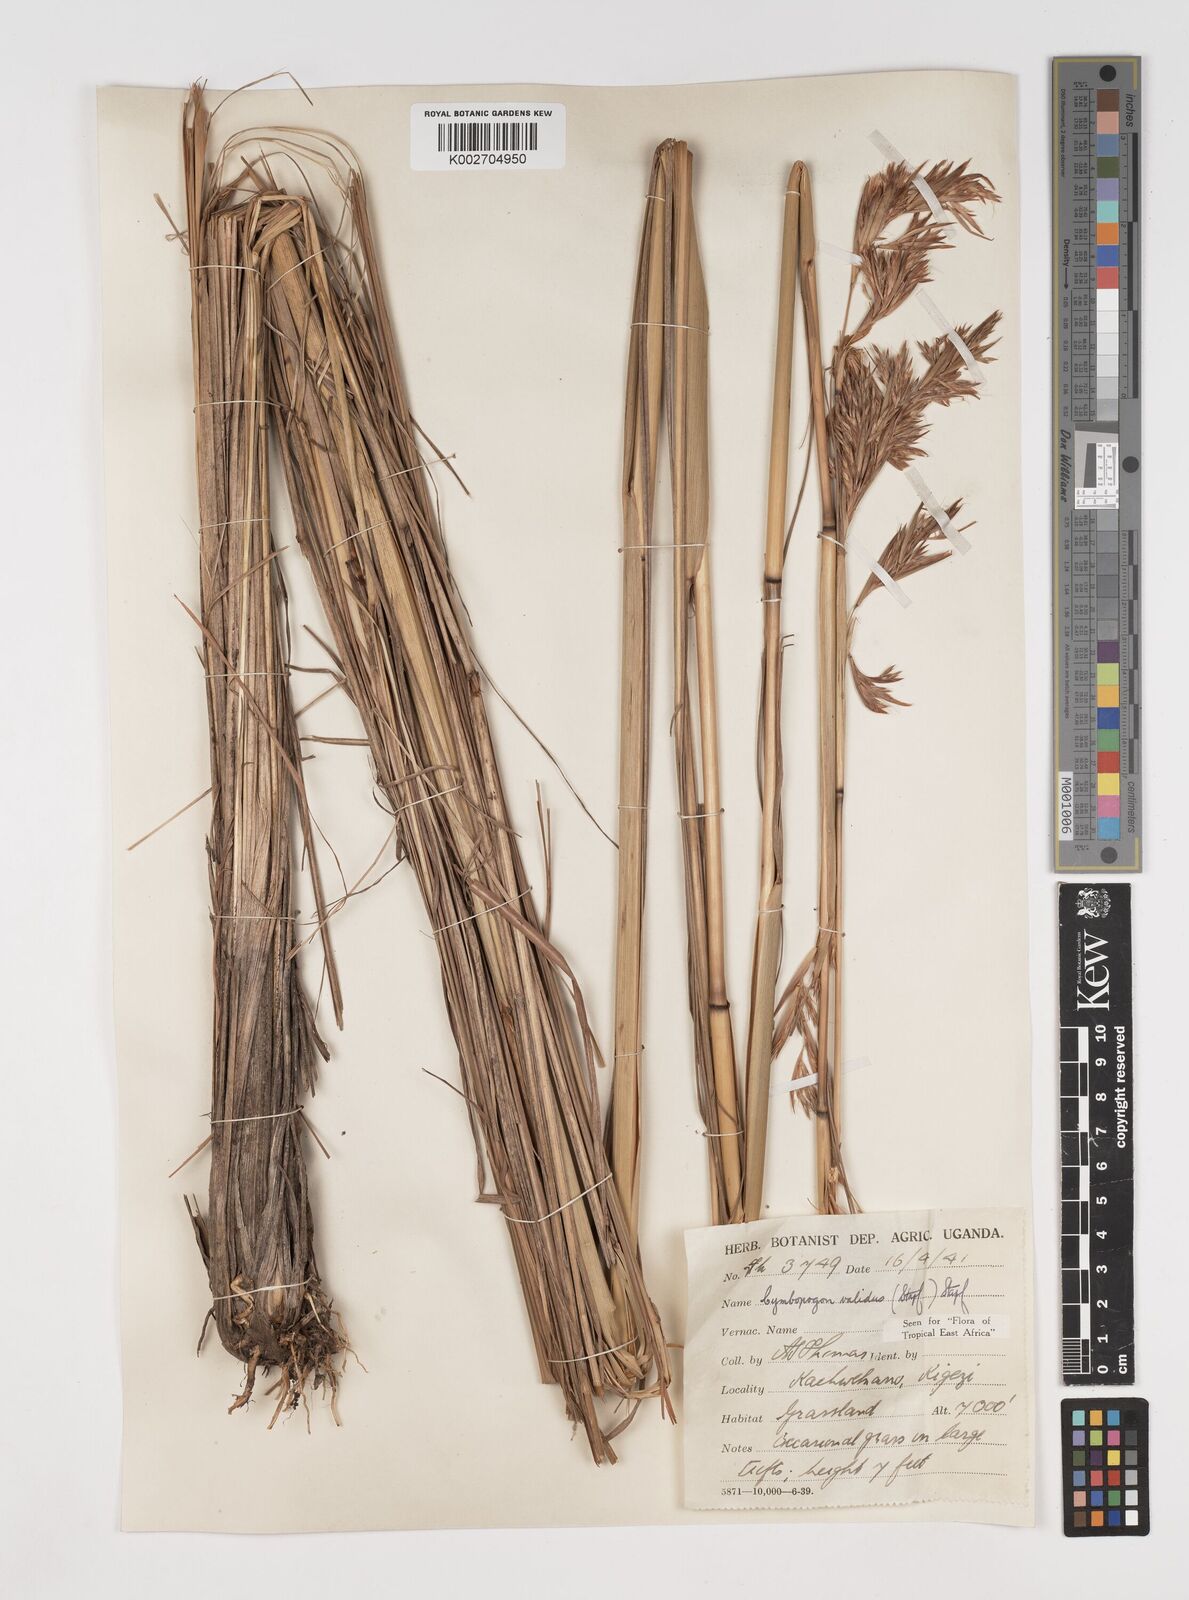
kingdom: Plantae
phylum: Tracheophyta
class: Liliopsida
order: Poales
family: Poaceae
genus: Cymbopogon
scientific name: Cymbopogon nardus
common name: Giant turpentine grass
